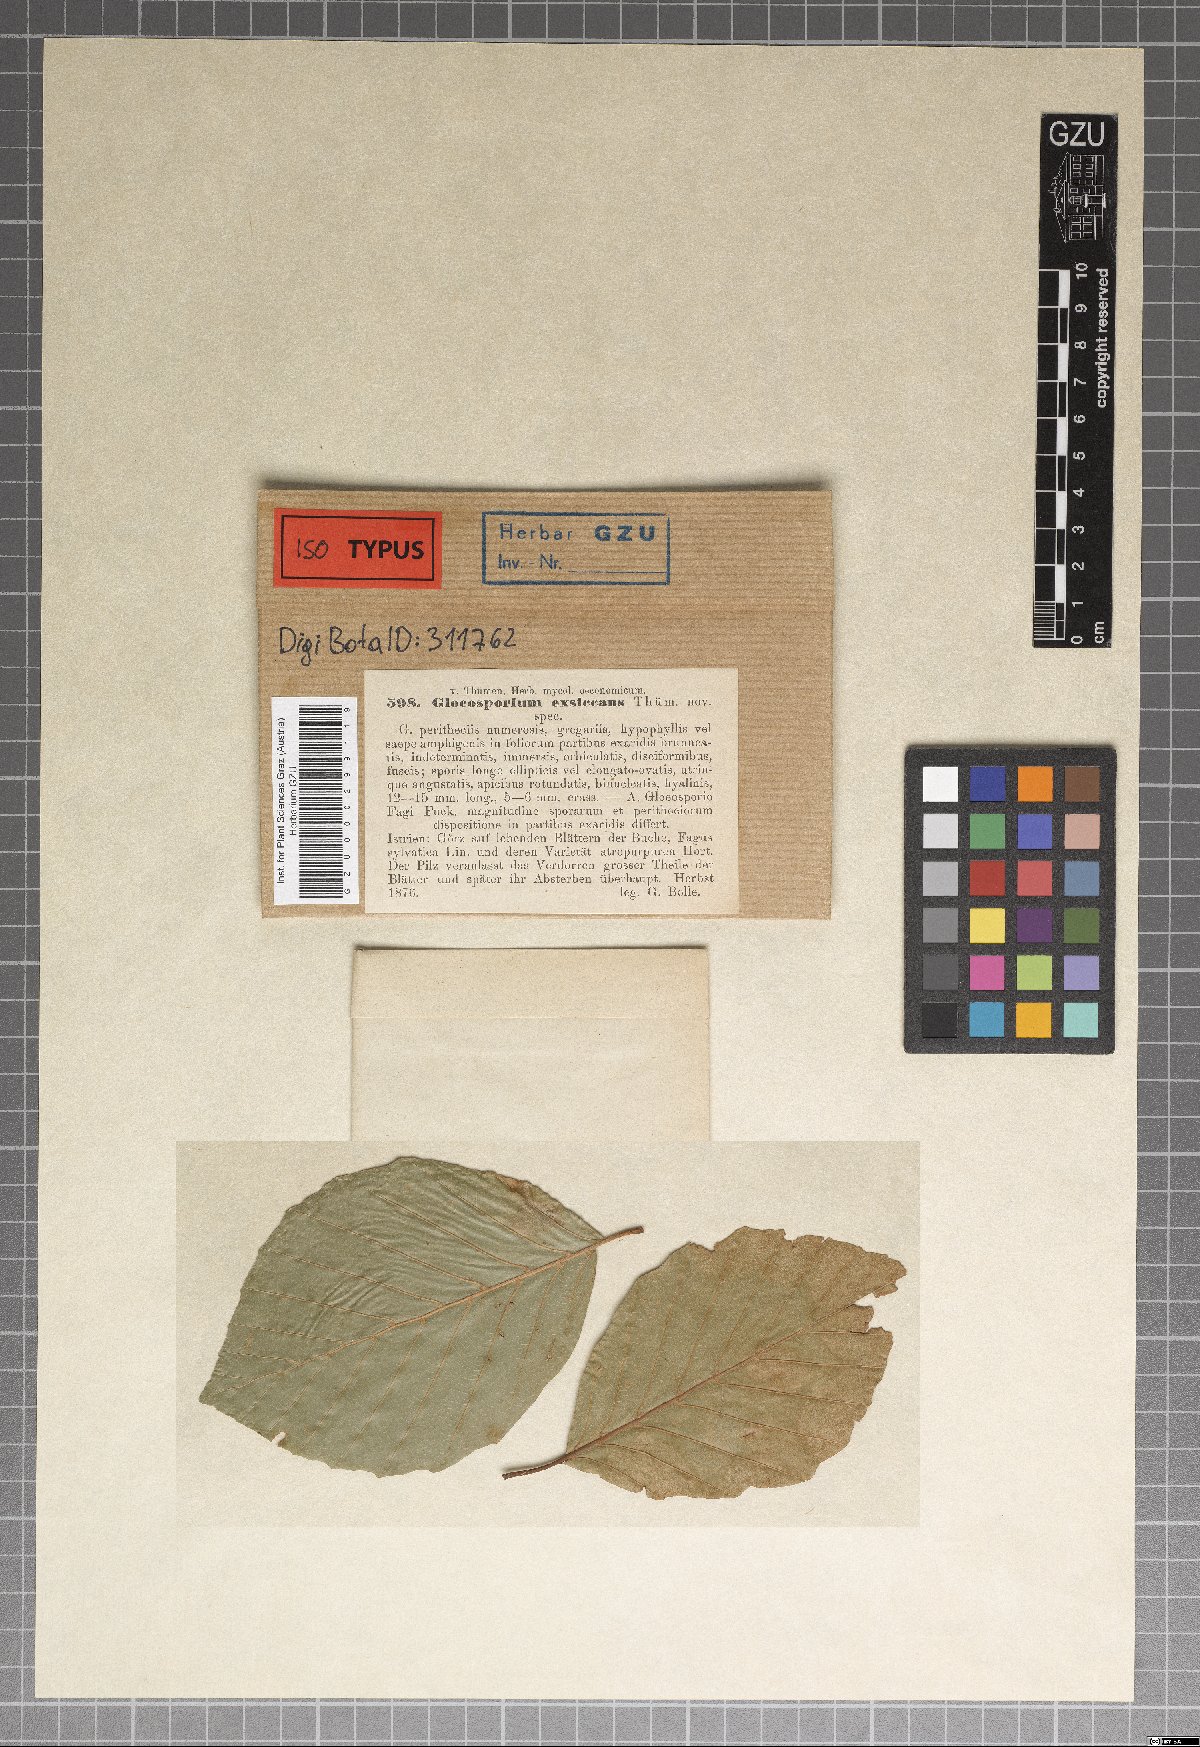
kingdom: Fungi
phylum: Ascomycota
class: Leotiomycetes
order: Helotiales
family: Dermateaceae
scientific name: Dermateaceae
